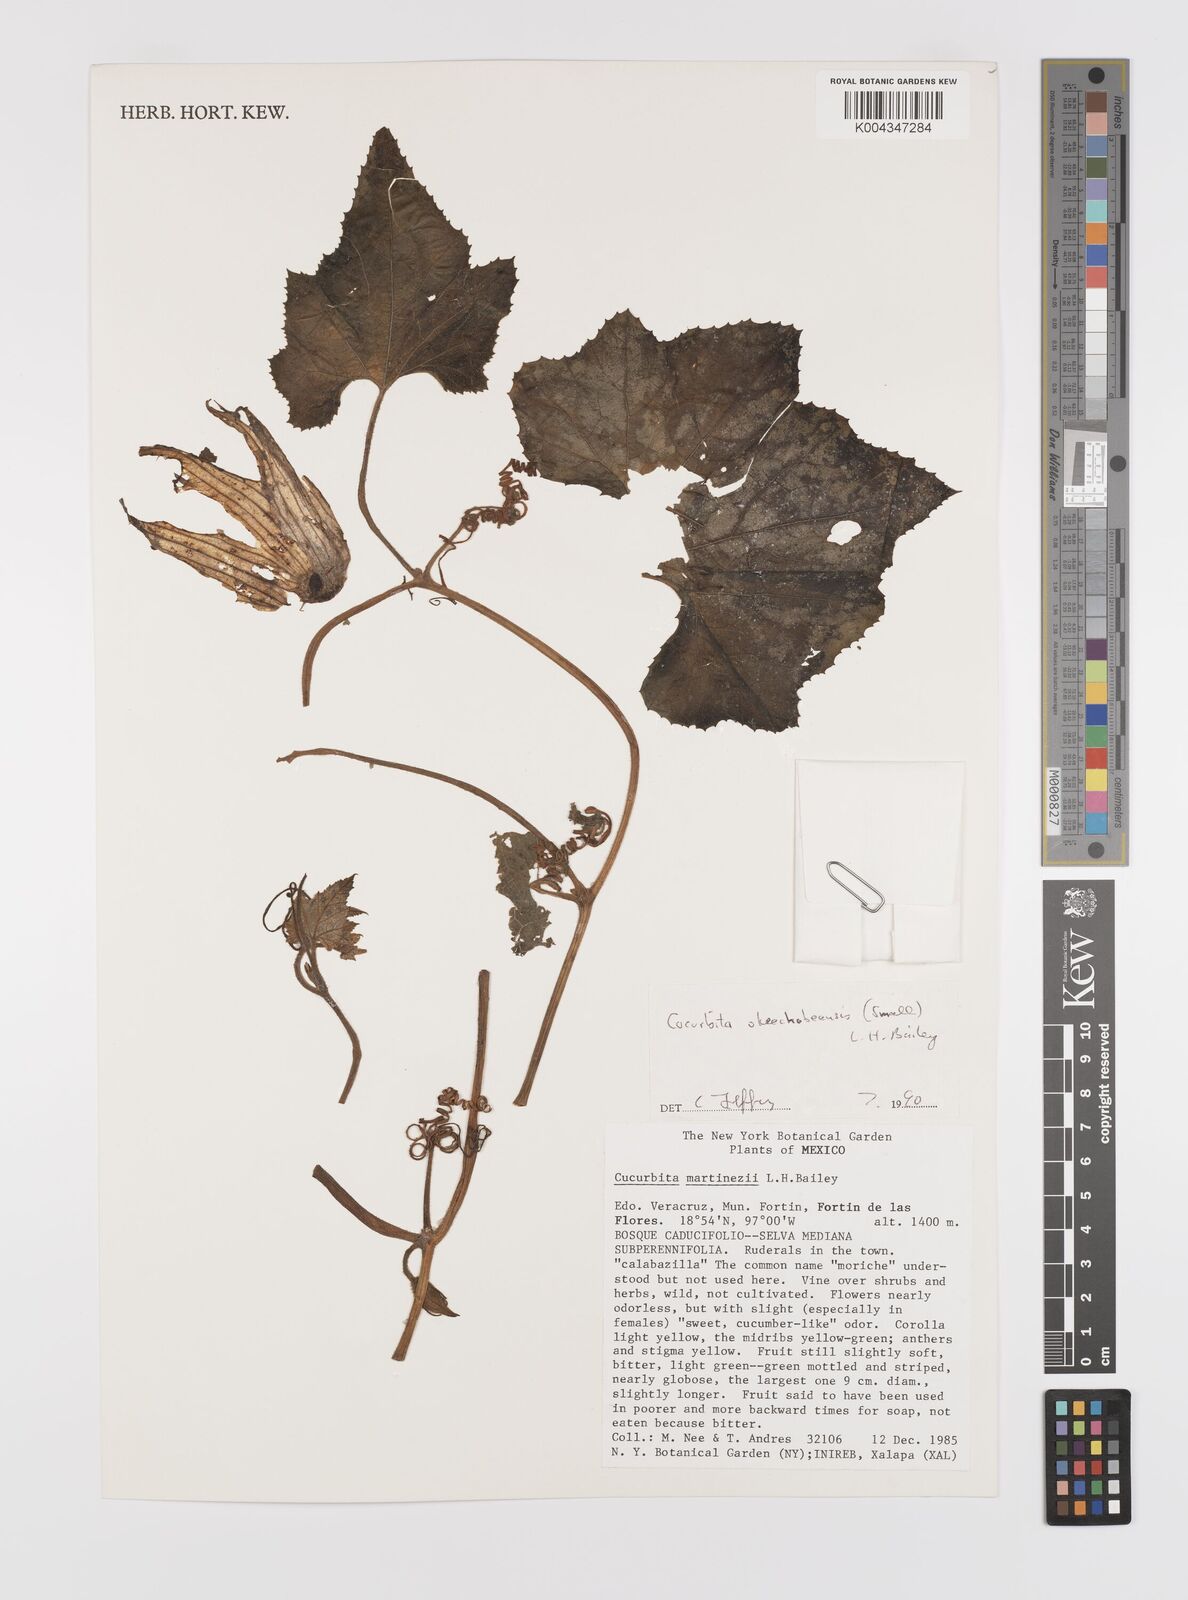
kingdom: Plantae
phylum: Tracheophyta
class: Magnoliopsida
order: Cucurbitales
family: Cucurbitaceae
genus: Cucurbita
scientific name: Cucurbita okeechobeensis
